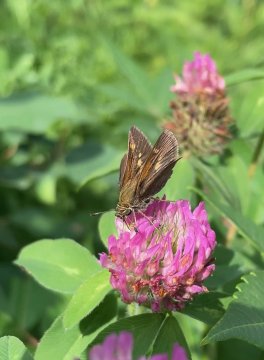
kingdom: Animalia
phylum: Arthropoda
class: Insecta
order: Lepidoptera
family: Hesperiidae
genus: Polites
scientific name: Polites themistocles
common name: Tawny-edged Skipper
